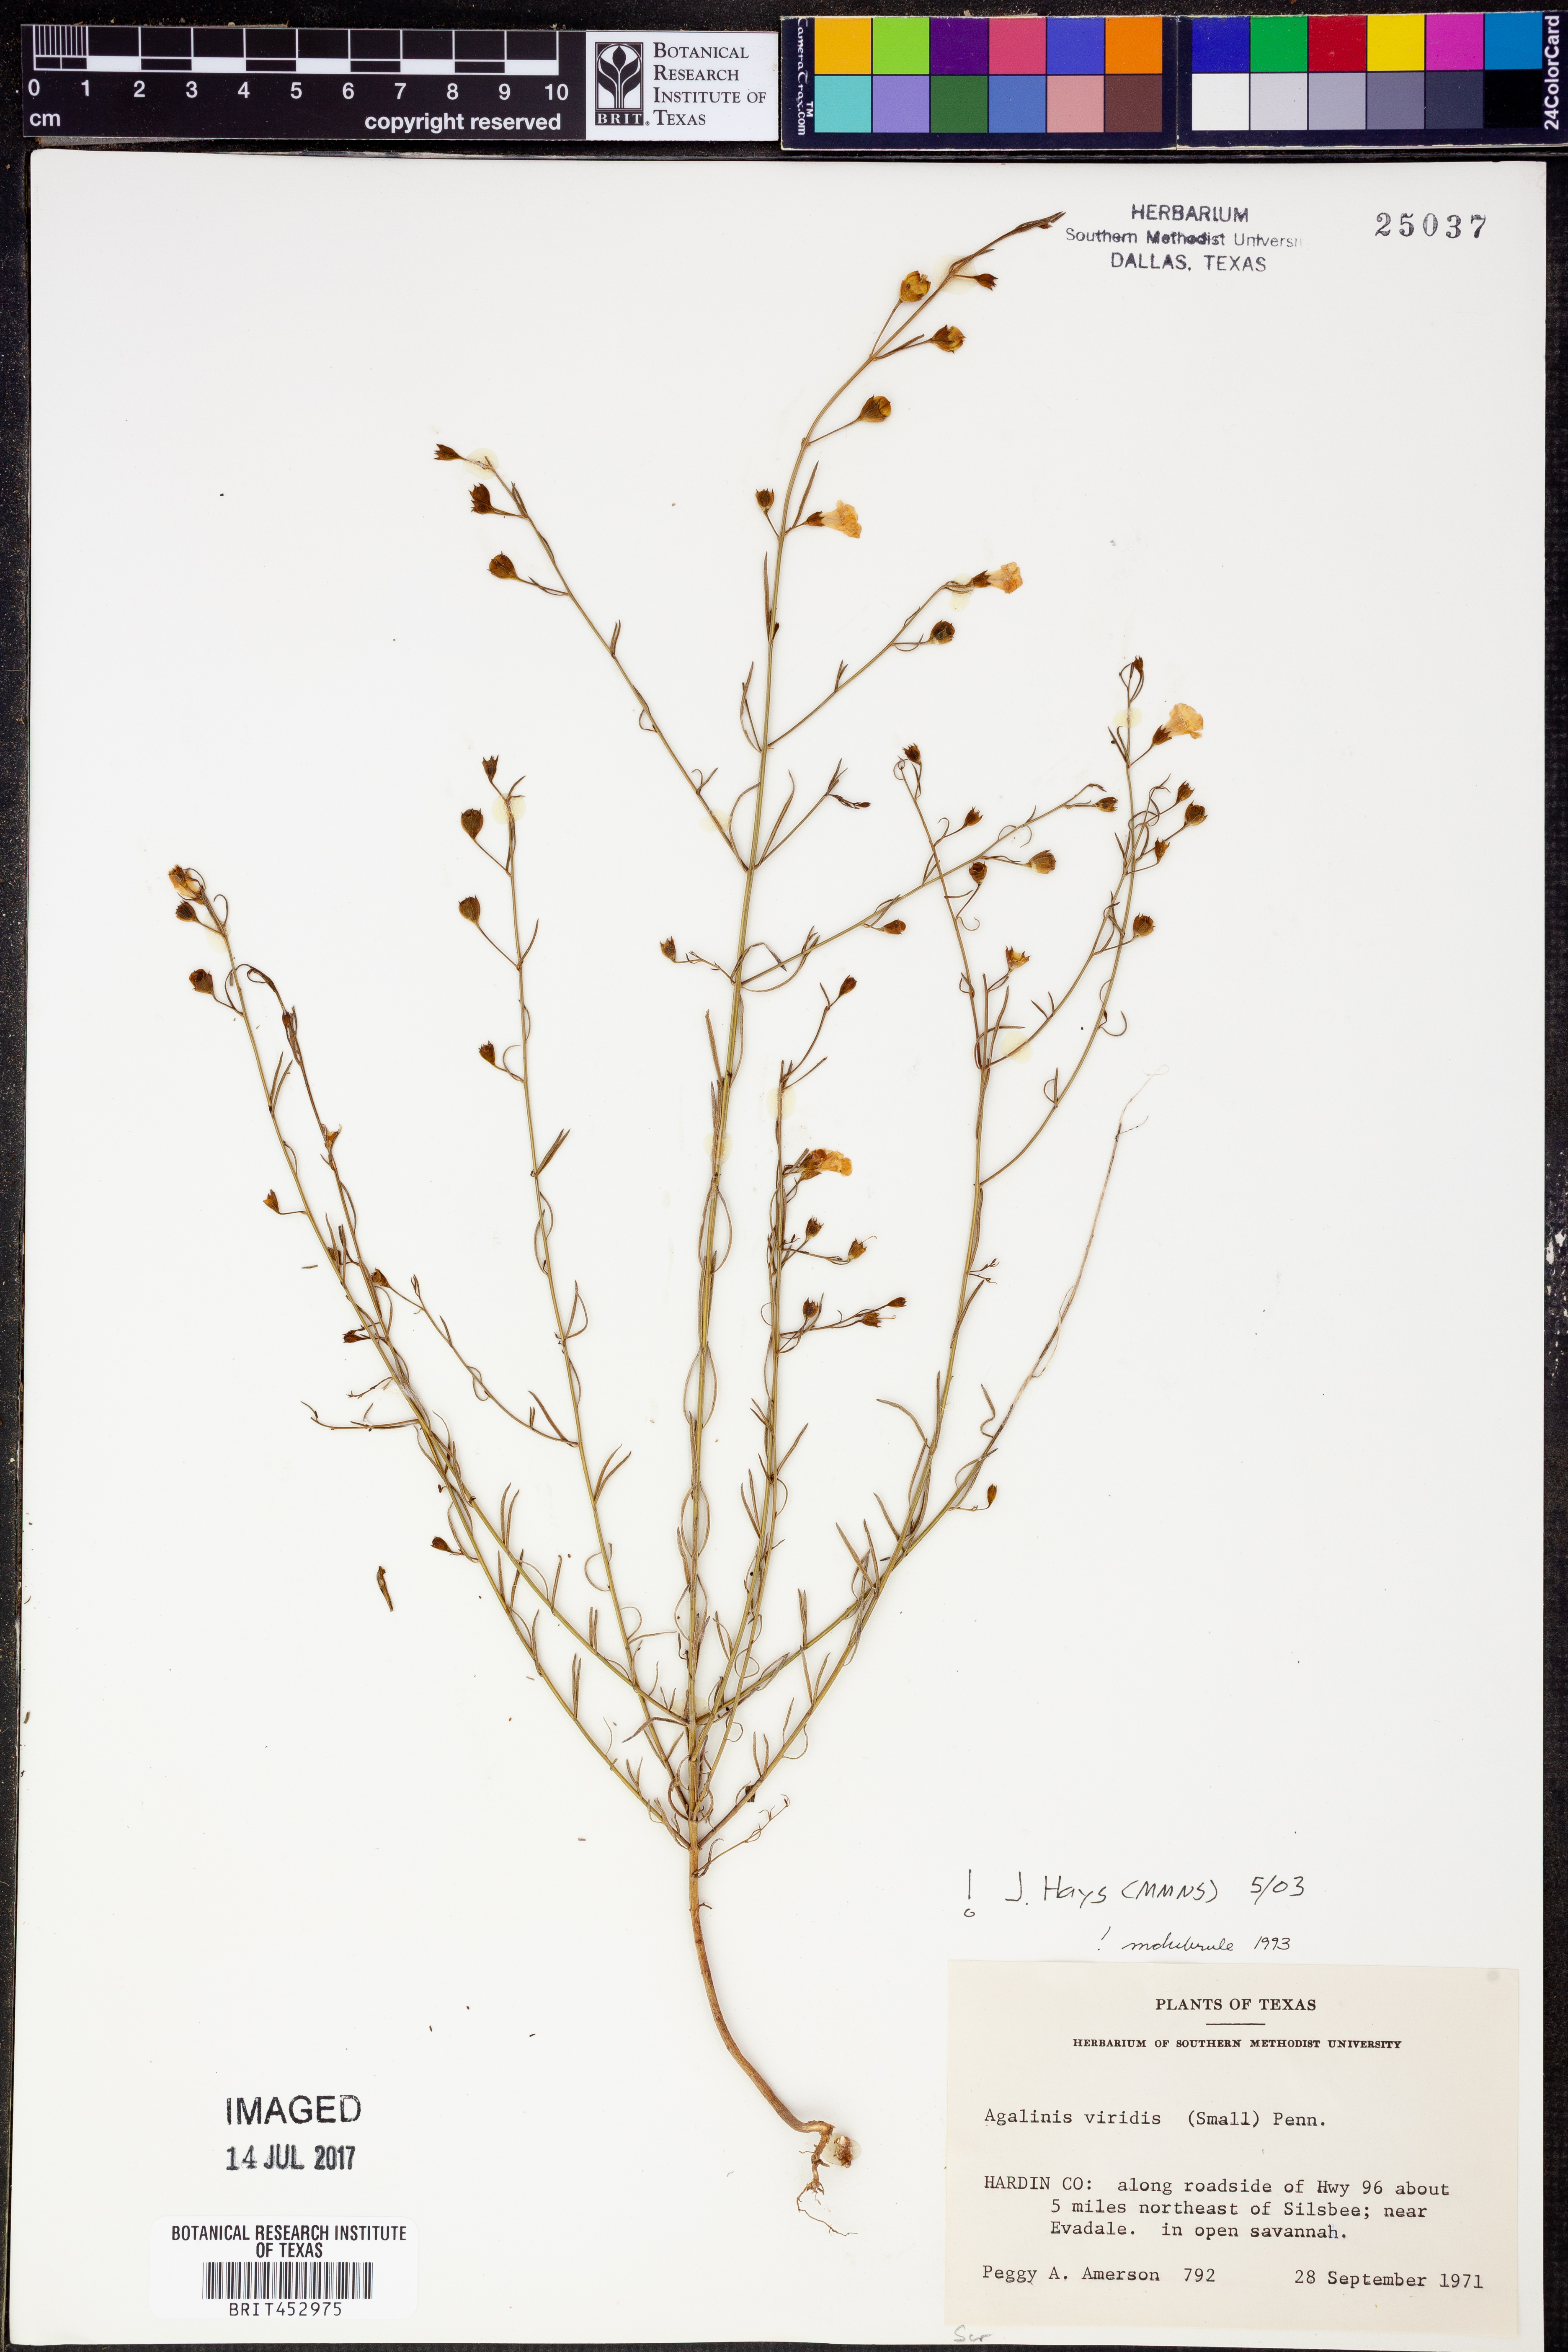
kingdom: Plantae
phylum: Tracheophyta
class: Magnoliopsida
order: Lamiales
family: Orobanchaceae
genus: Agalinis
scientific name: Agalinis viridis
